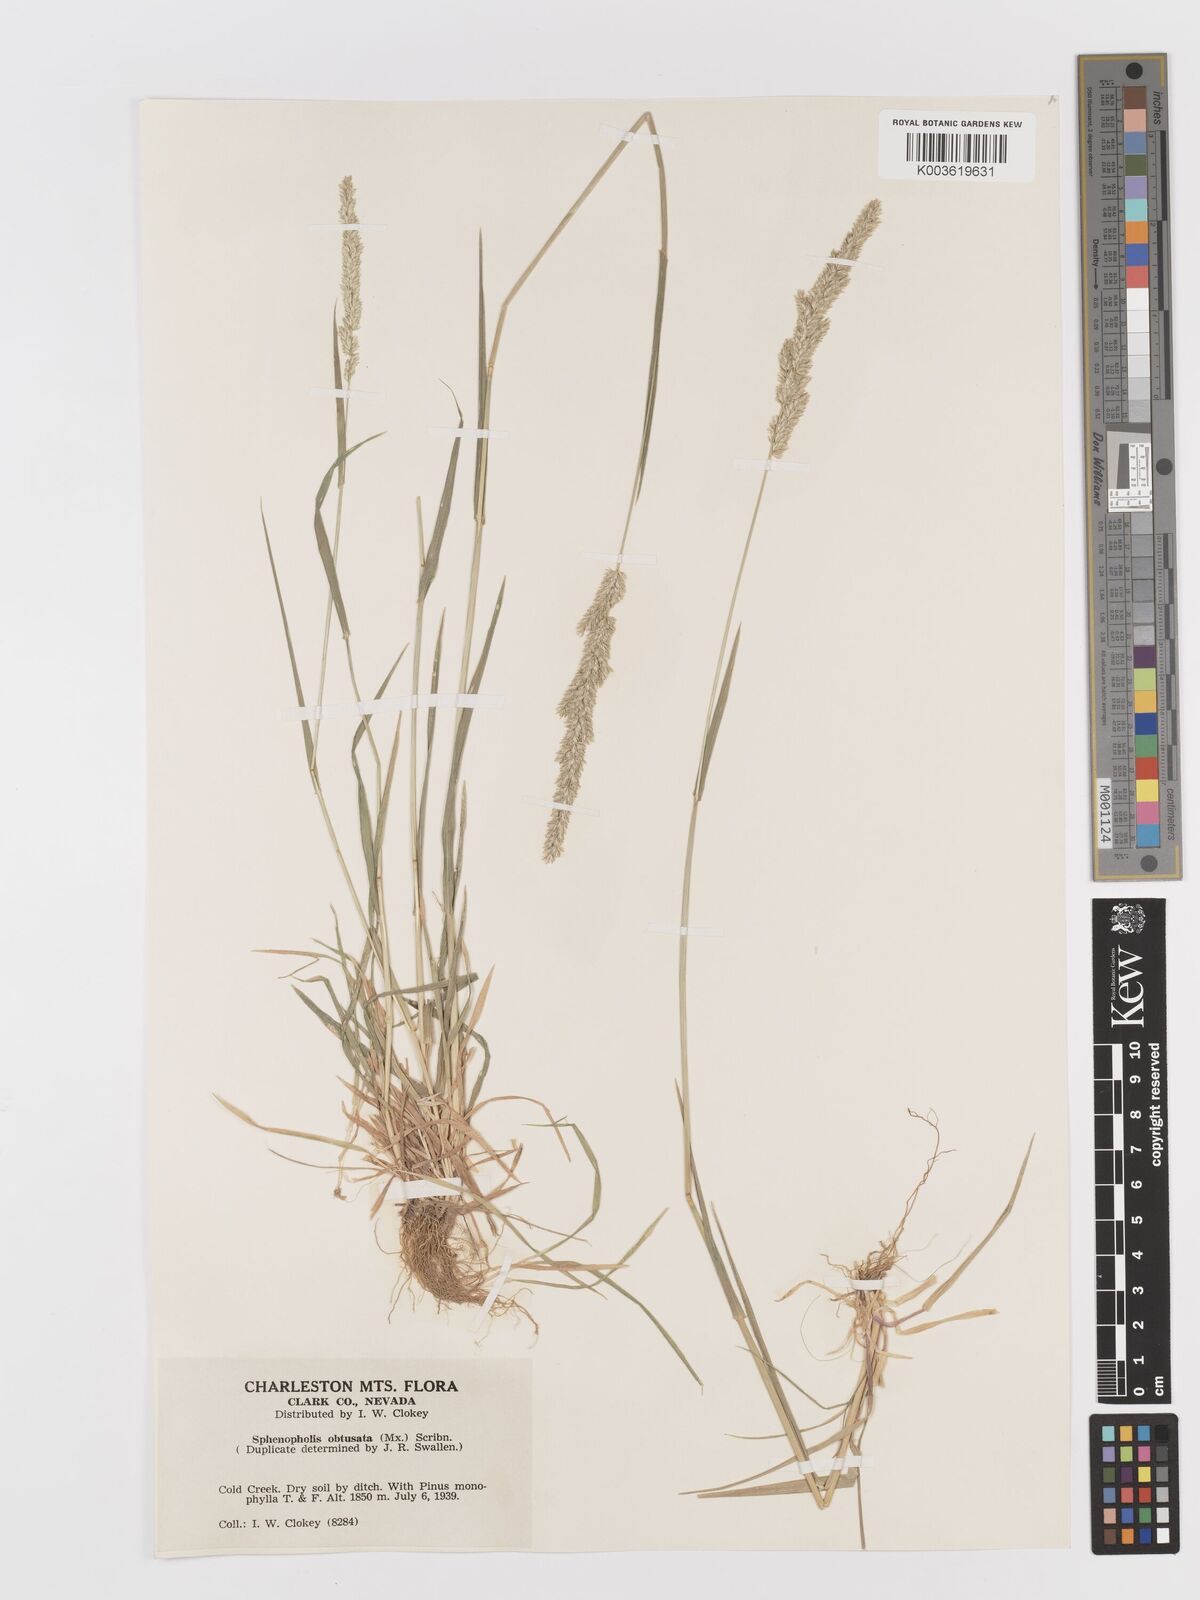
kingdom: Plantae
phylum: Tracheophyta
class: Liliopsida
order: Poales
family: Poaceae
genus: Sphenopholis
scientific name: Sphenopholis obtusata
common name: Prairie grass
